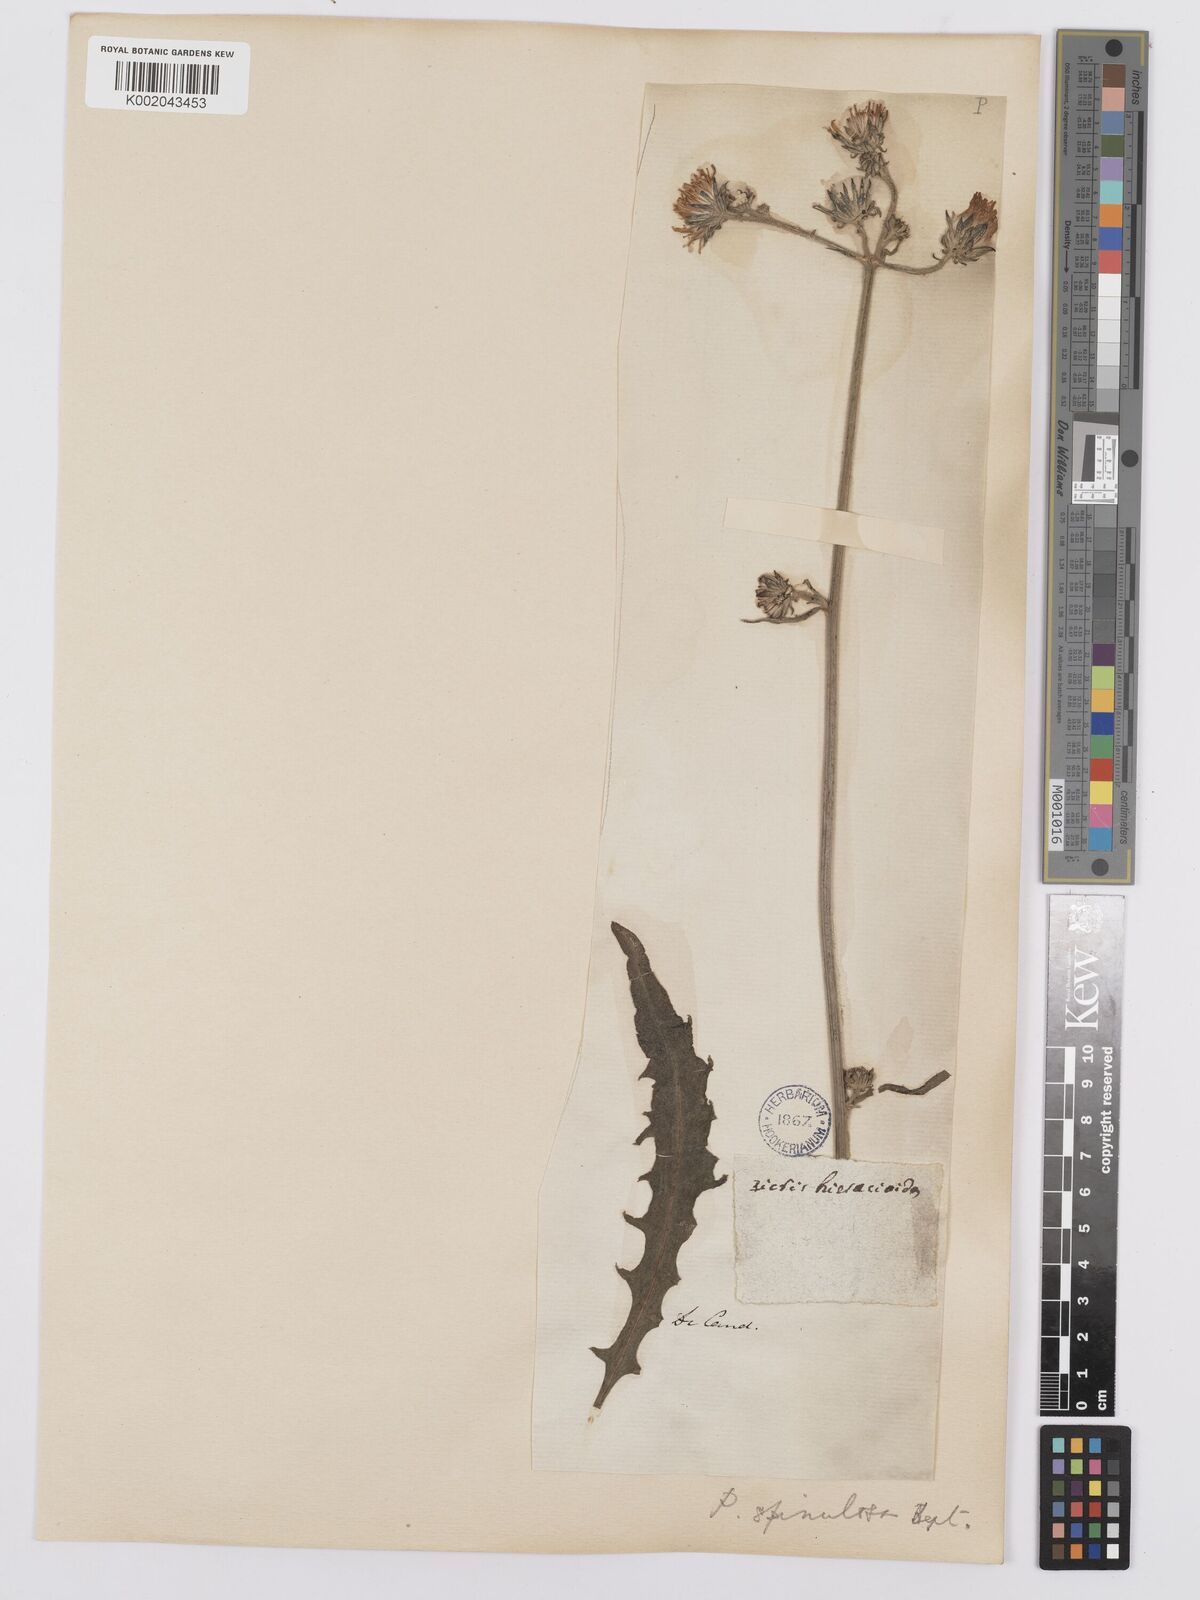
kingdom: Plantae
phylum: Tracheophyta
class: Magnoliopsida
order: Asterales
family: Asteraceae
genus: Picris
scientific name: Picris hieracioides
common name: Hawkweed oxtongue
